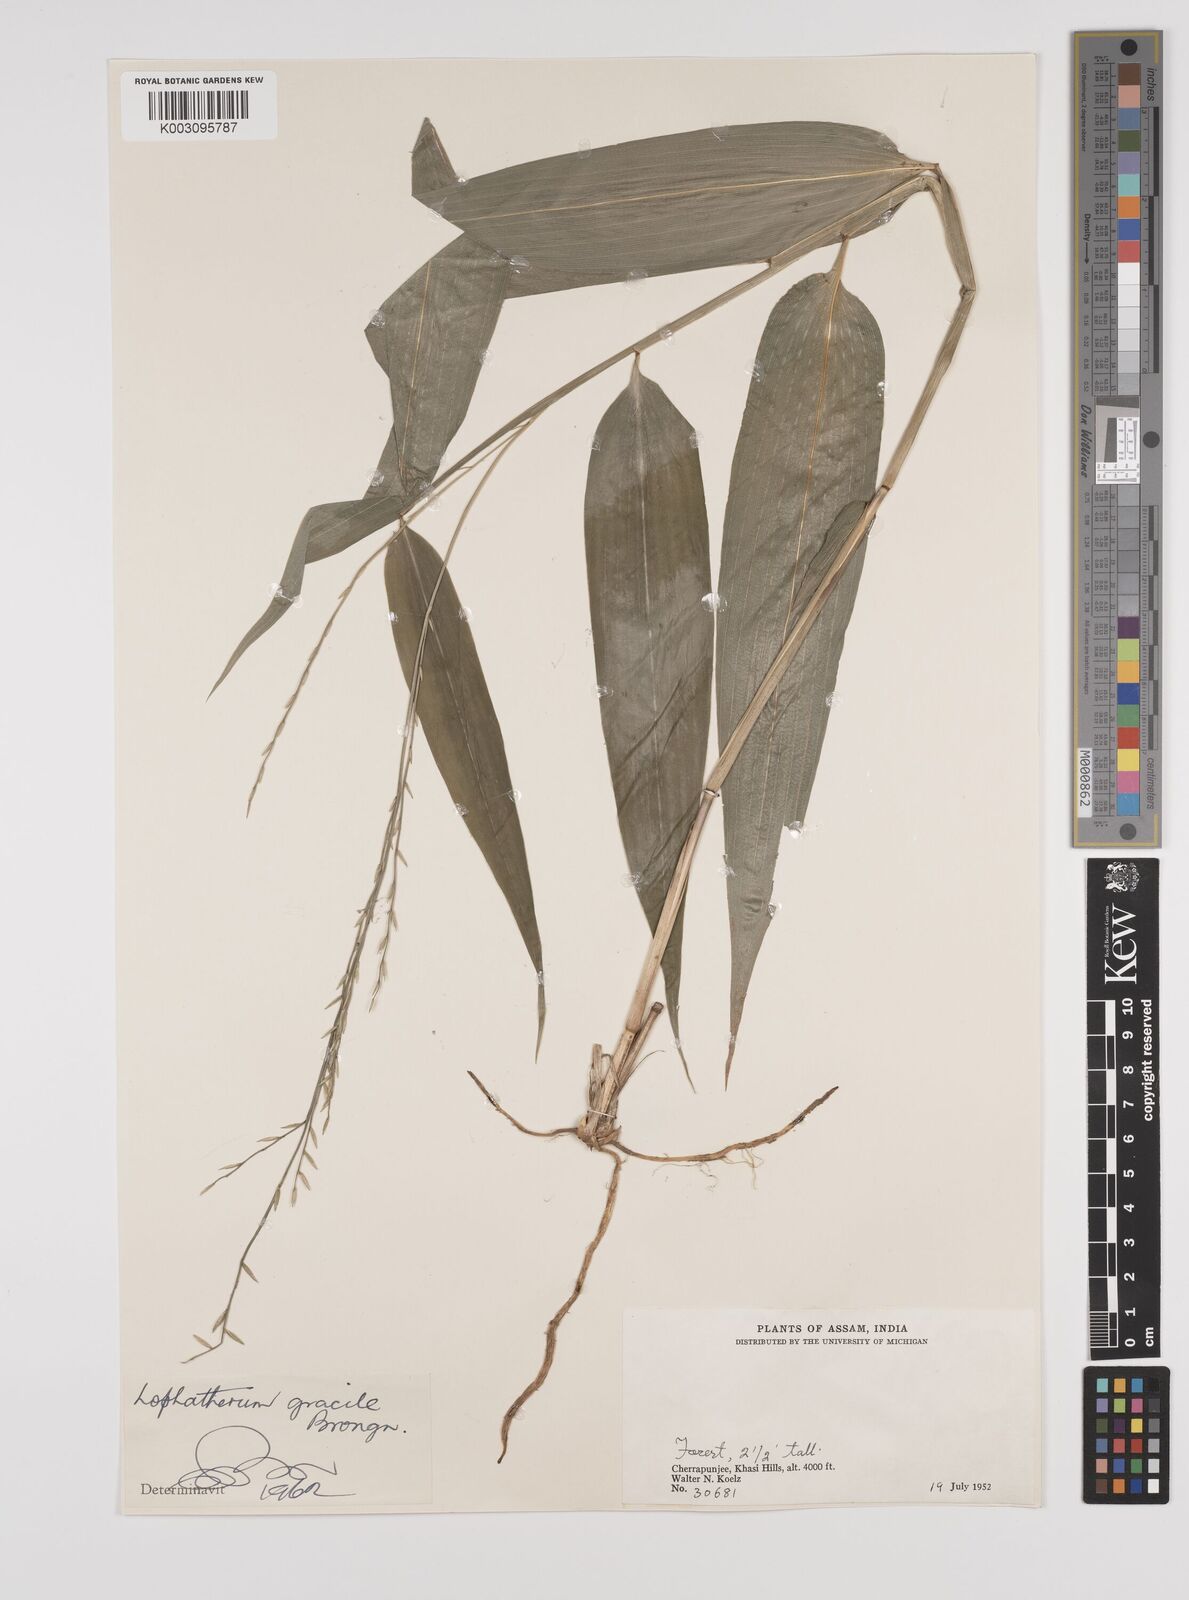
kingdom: Plantae
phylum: Tracheophyta
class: Liliopsida
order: Poales
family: Poaceae
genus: Lophatherum
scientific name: Lophatherum gracile
